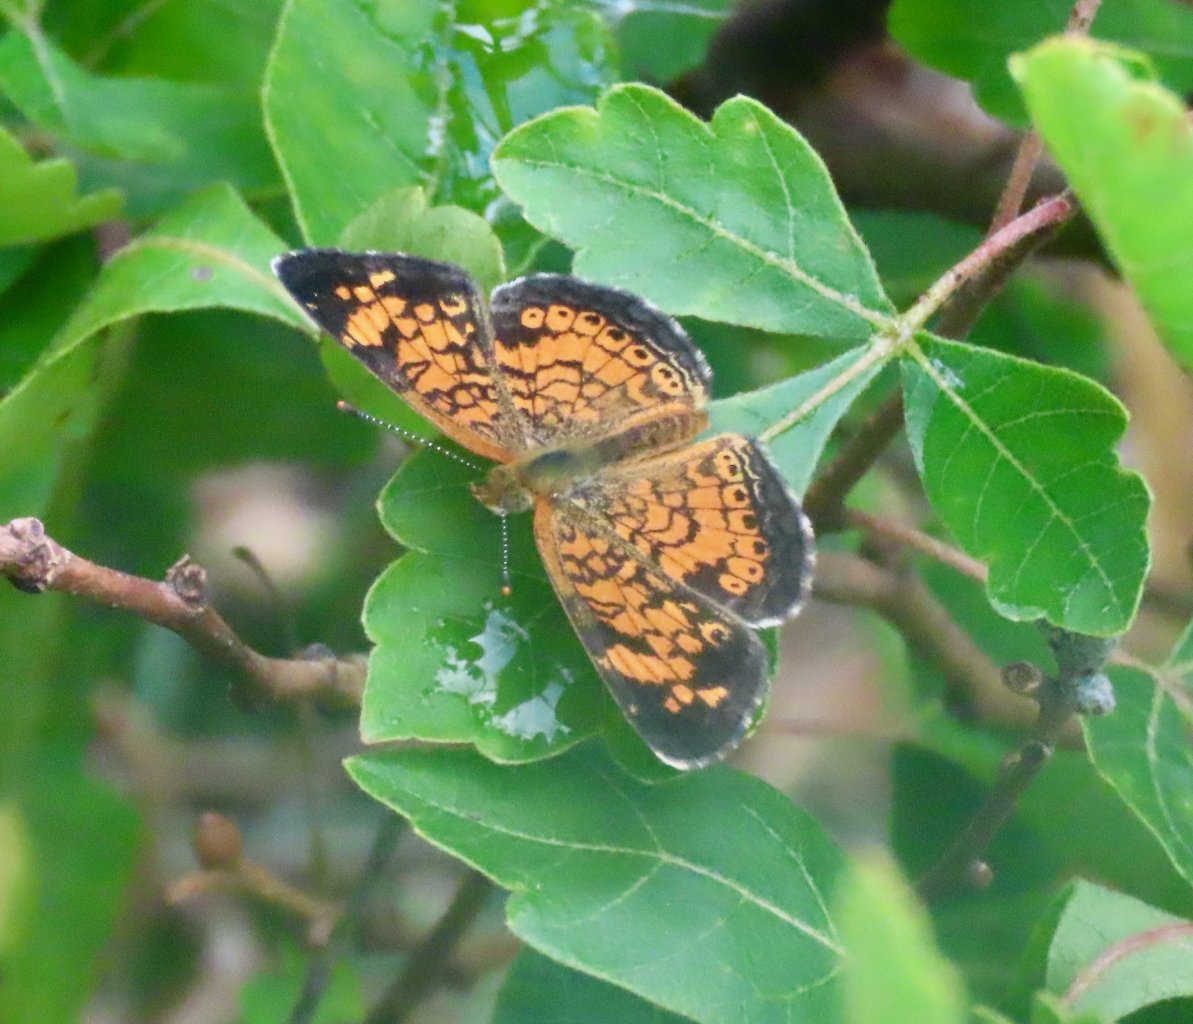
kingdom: Animalia
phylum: Arthropoda
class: Insecta
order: Lepidoptera
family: Nymphalidae
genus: Phyciodes
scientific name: Phyciodes tharos
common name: Pearl Crescent
